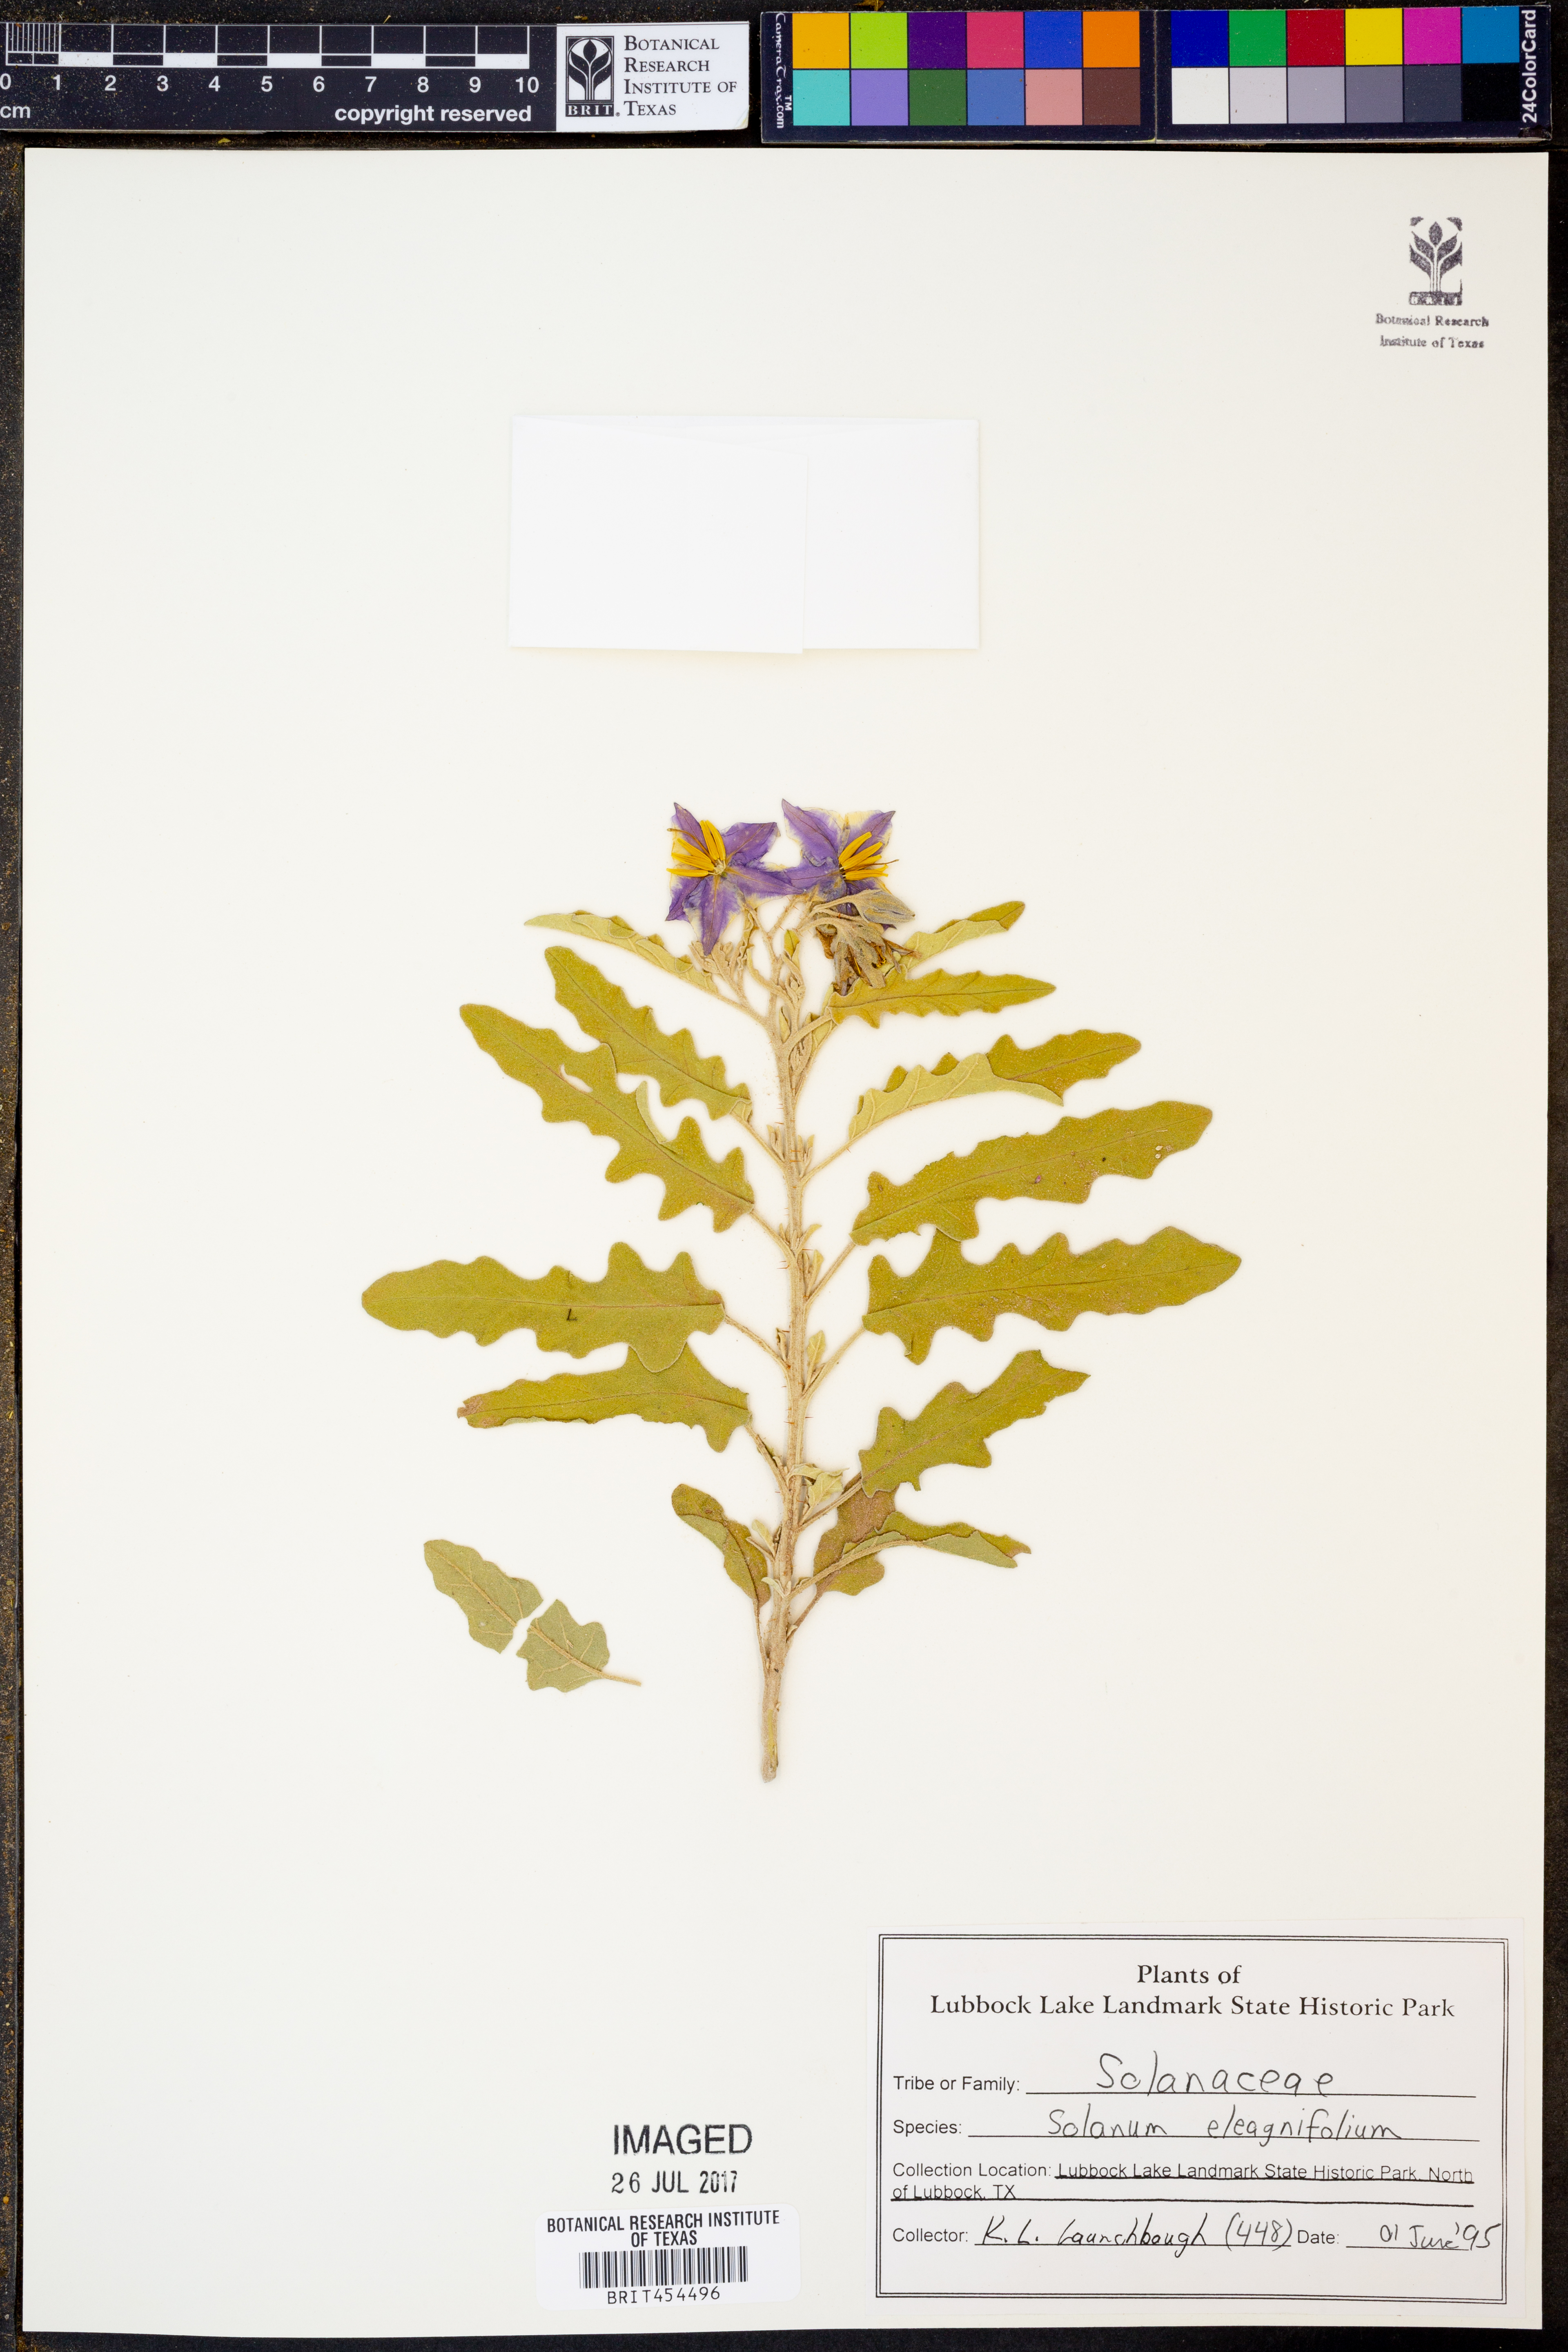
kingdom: Plantae
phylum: Tracheophyta
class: Magnoliopsida
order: Solanales
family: Solanaceae
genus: Solanum
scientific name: Solanum elaeagnifolium
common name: Silverleaf nightshade
